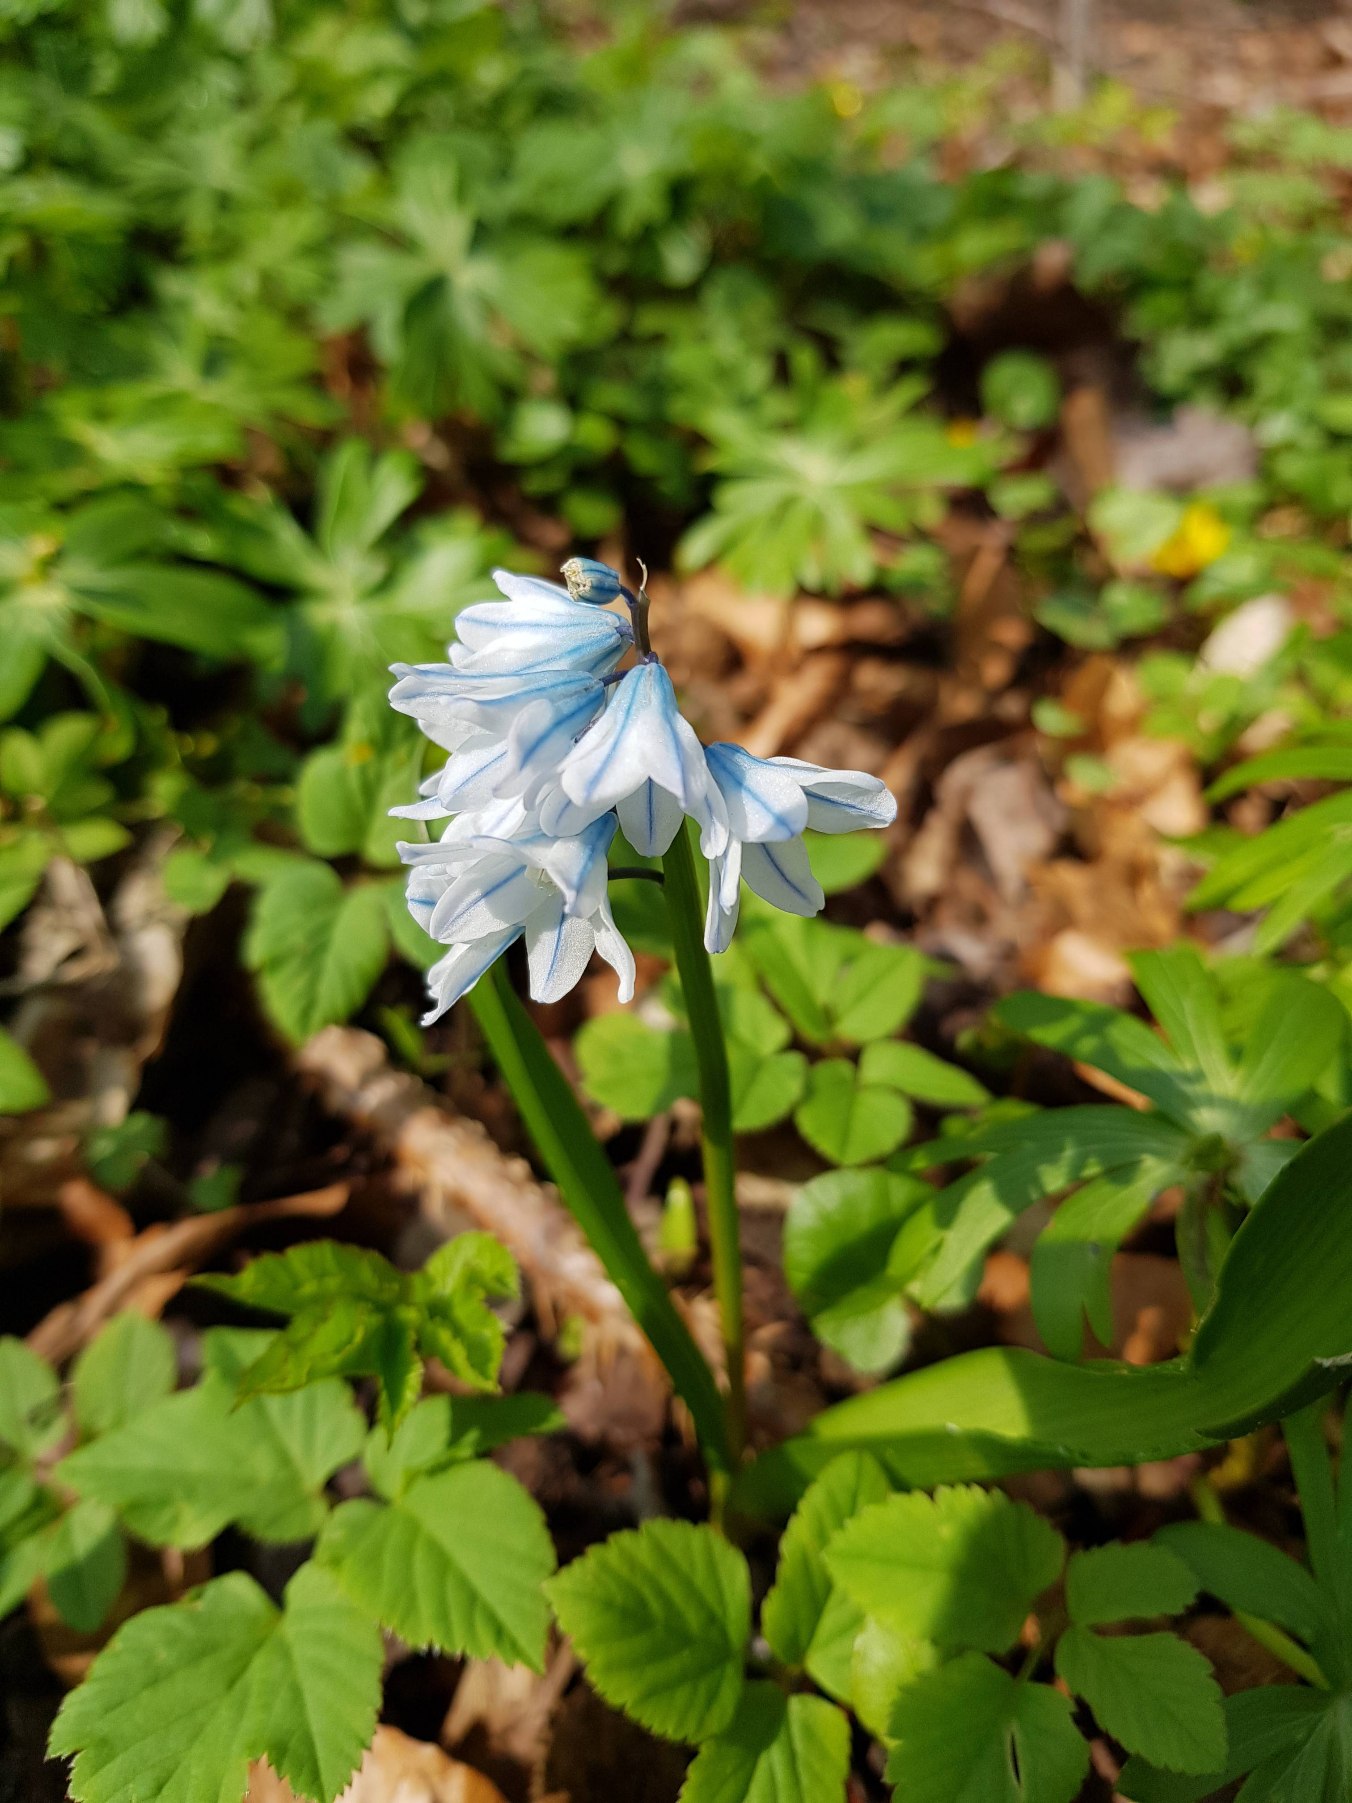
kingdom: Plantae
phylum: Tracheophyta
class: Liliopsida
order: Asparagales
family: Asparagaceae
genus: Puschkinia
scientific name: Puschkinia scilloides
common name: Porcelænshyacint
